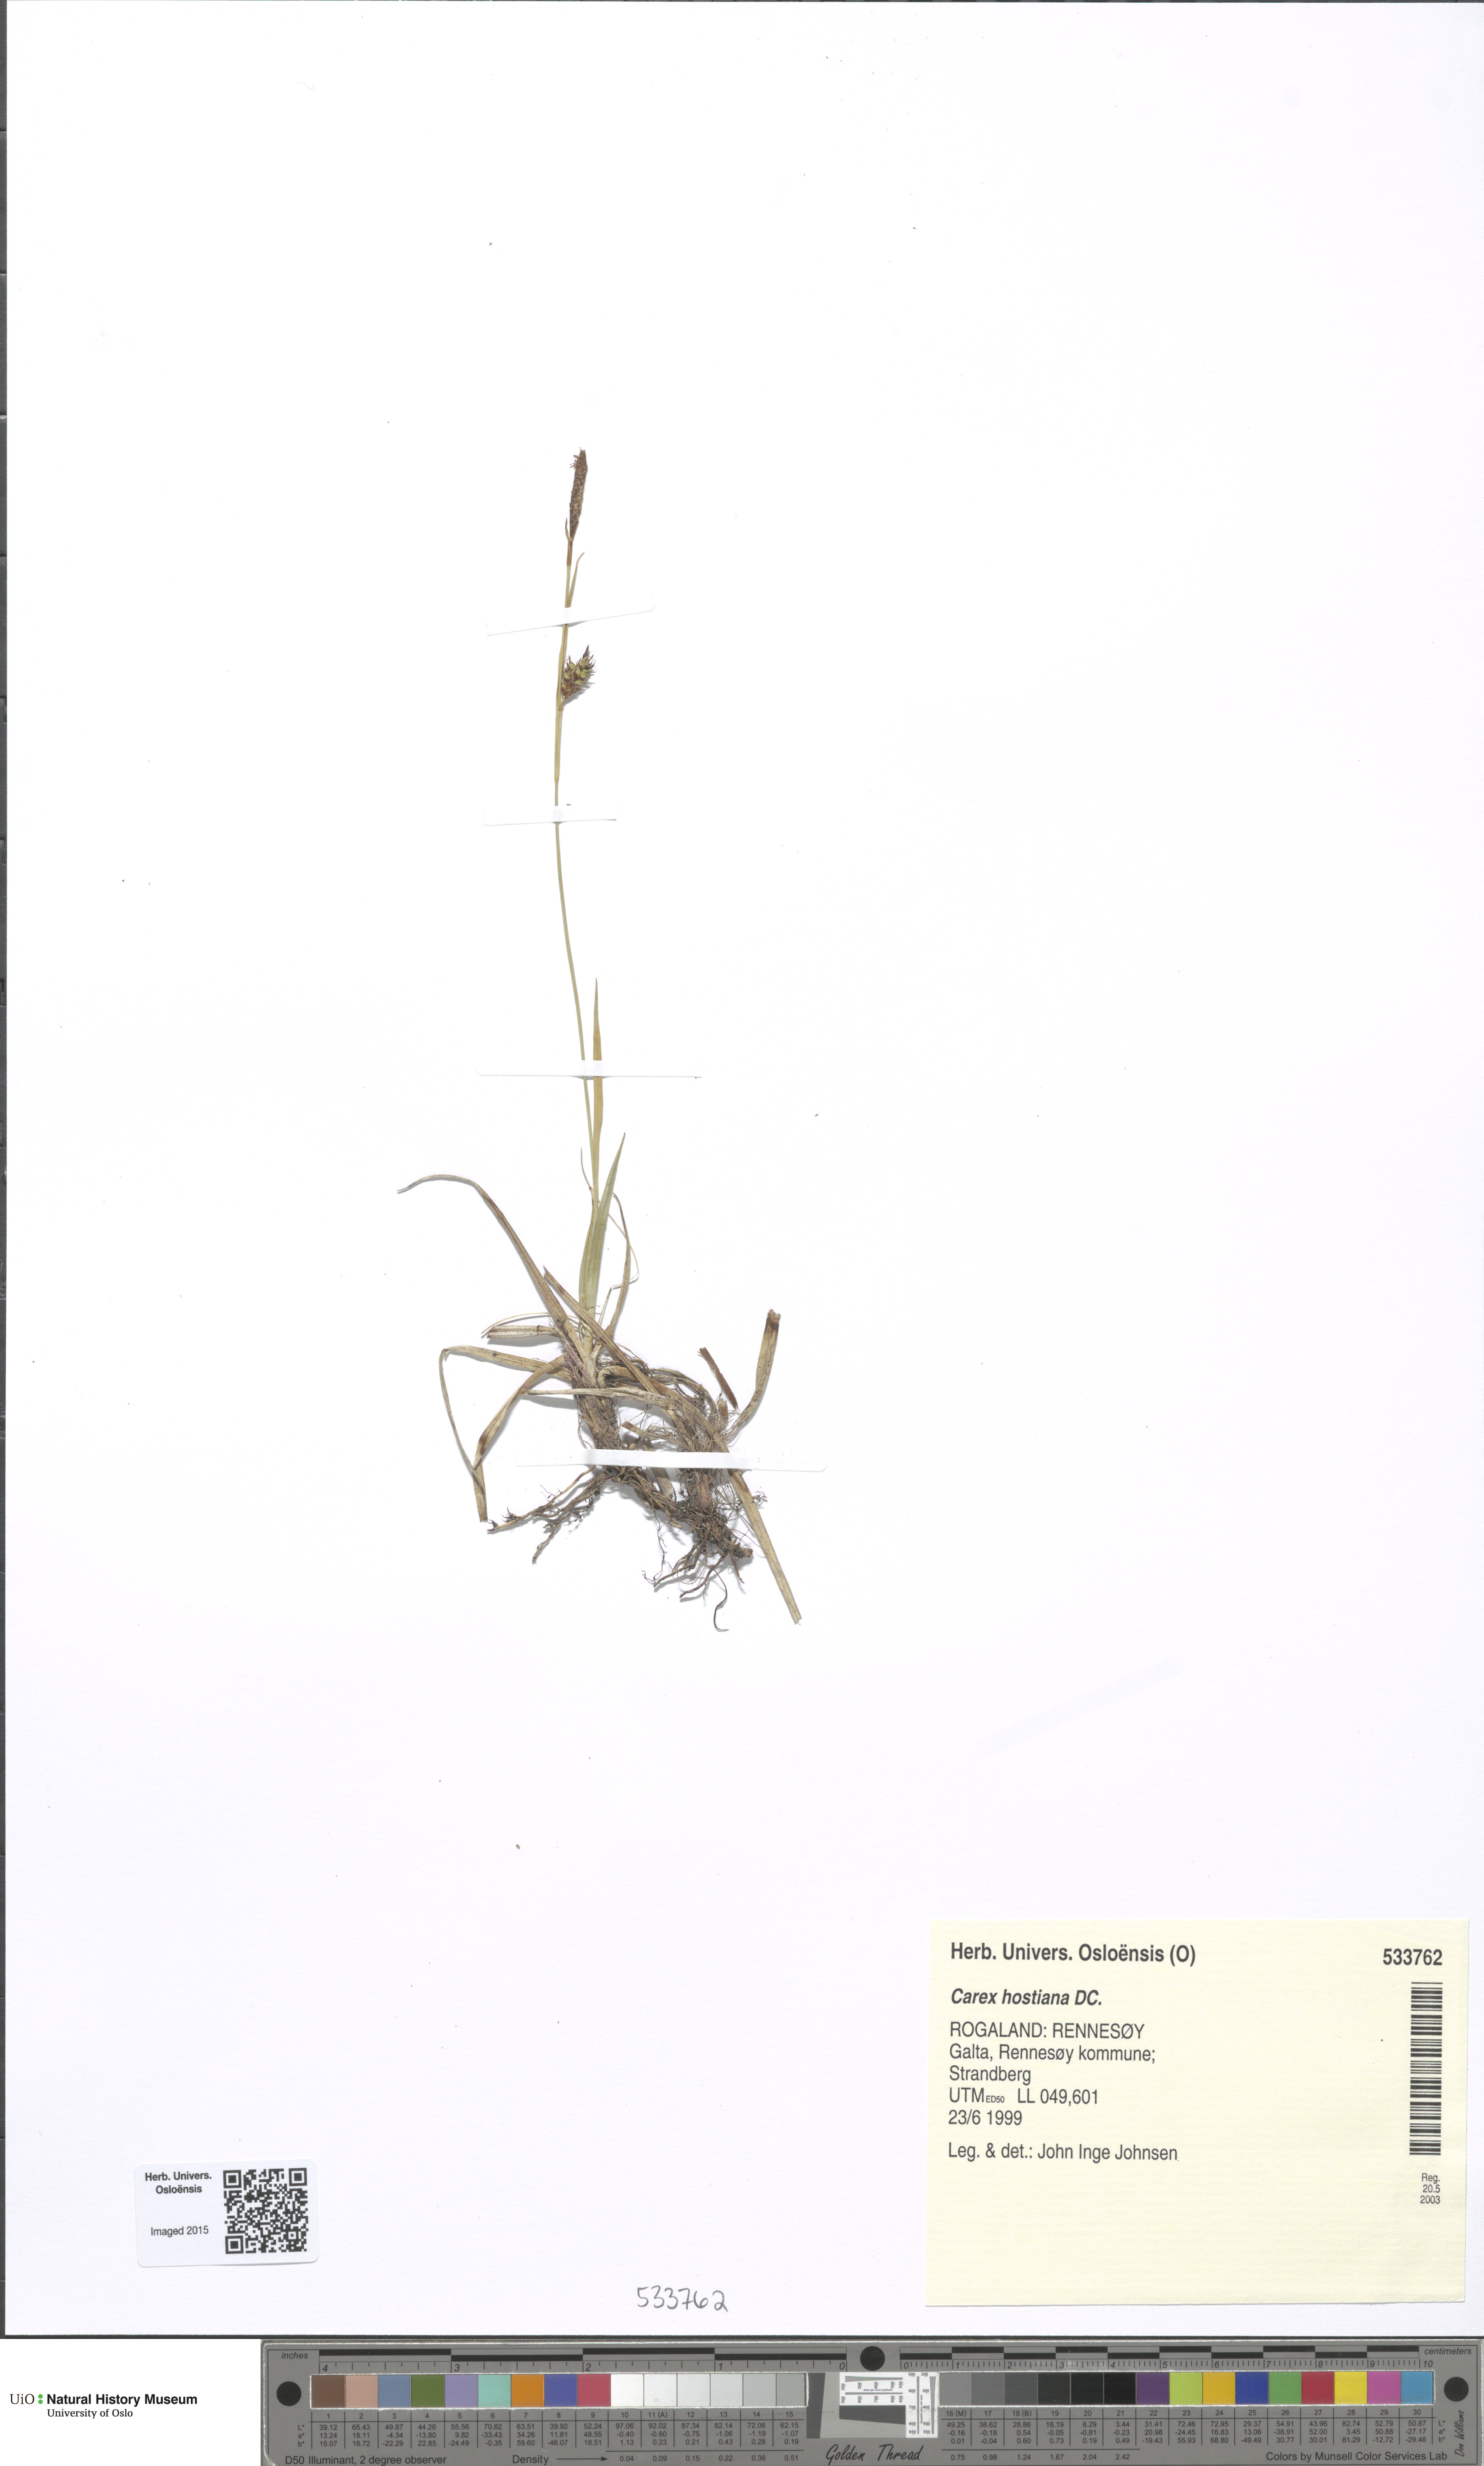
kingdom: Plantae
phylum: Tracheophyta
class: Liliopsida
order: Poales
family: Cyperaceae
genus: Carex
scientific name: Carex hostiana
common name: Tawny sedge
